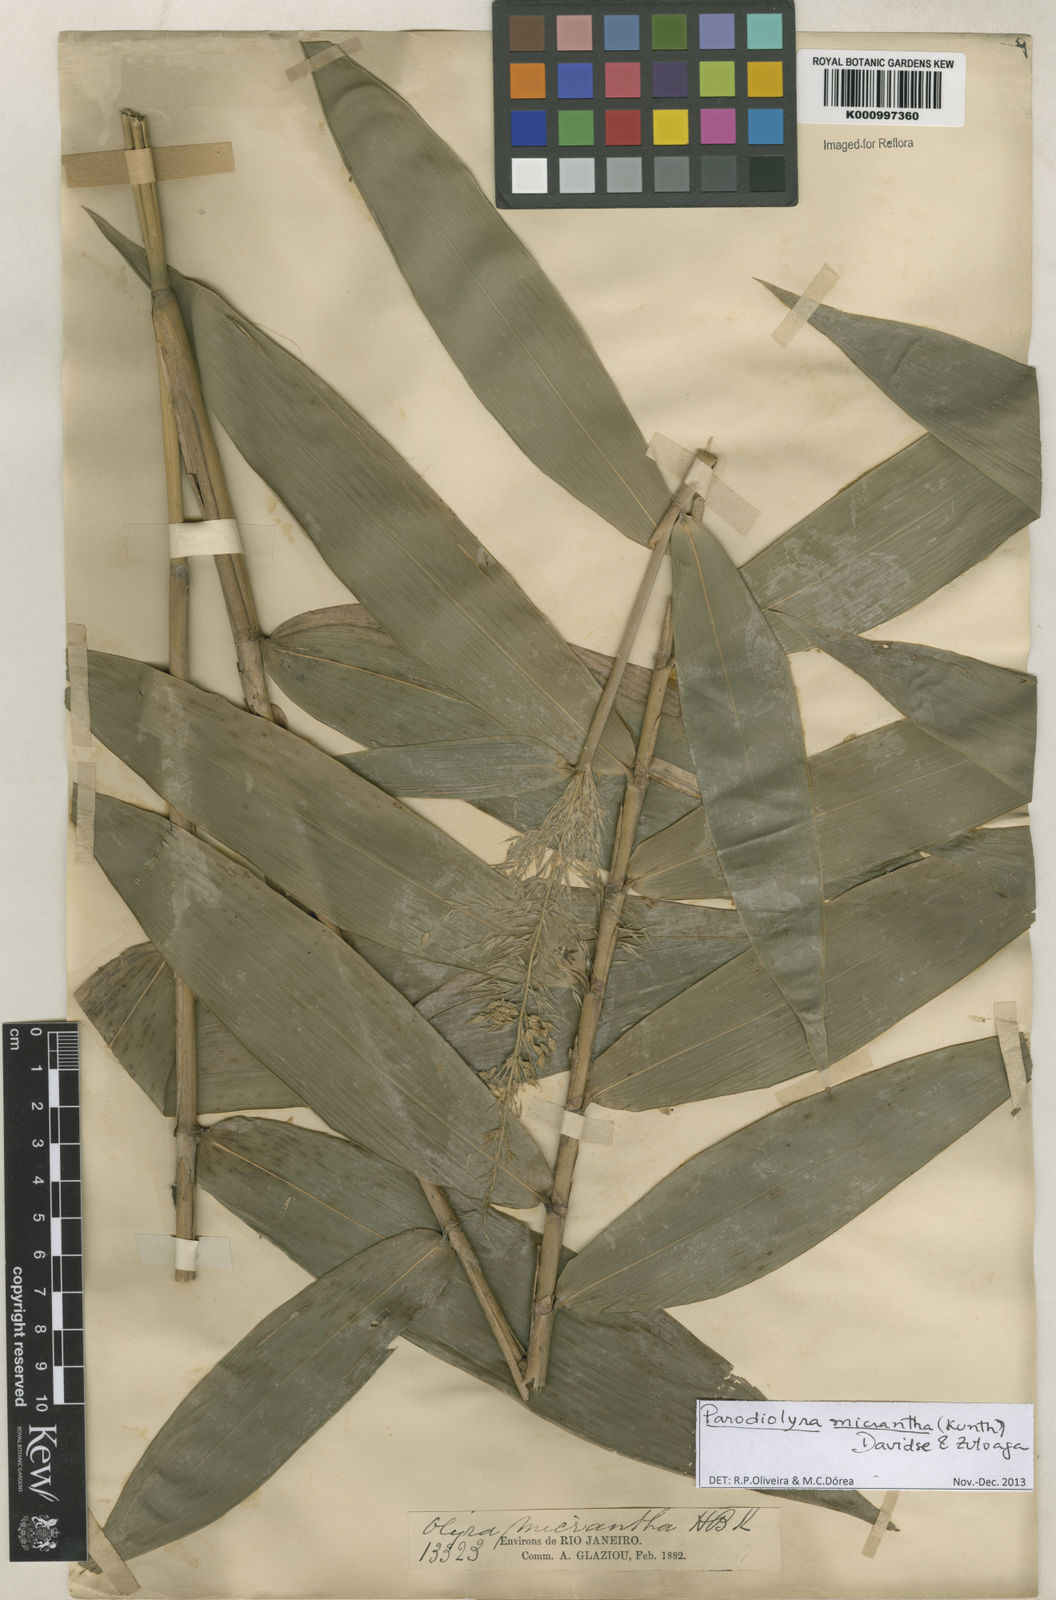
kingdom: Plantae
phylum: Tracheophyta
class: Liliopsida
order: Poales
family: Poaceae
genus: Taquara
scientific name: Taquara micrantha
